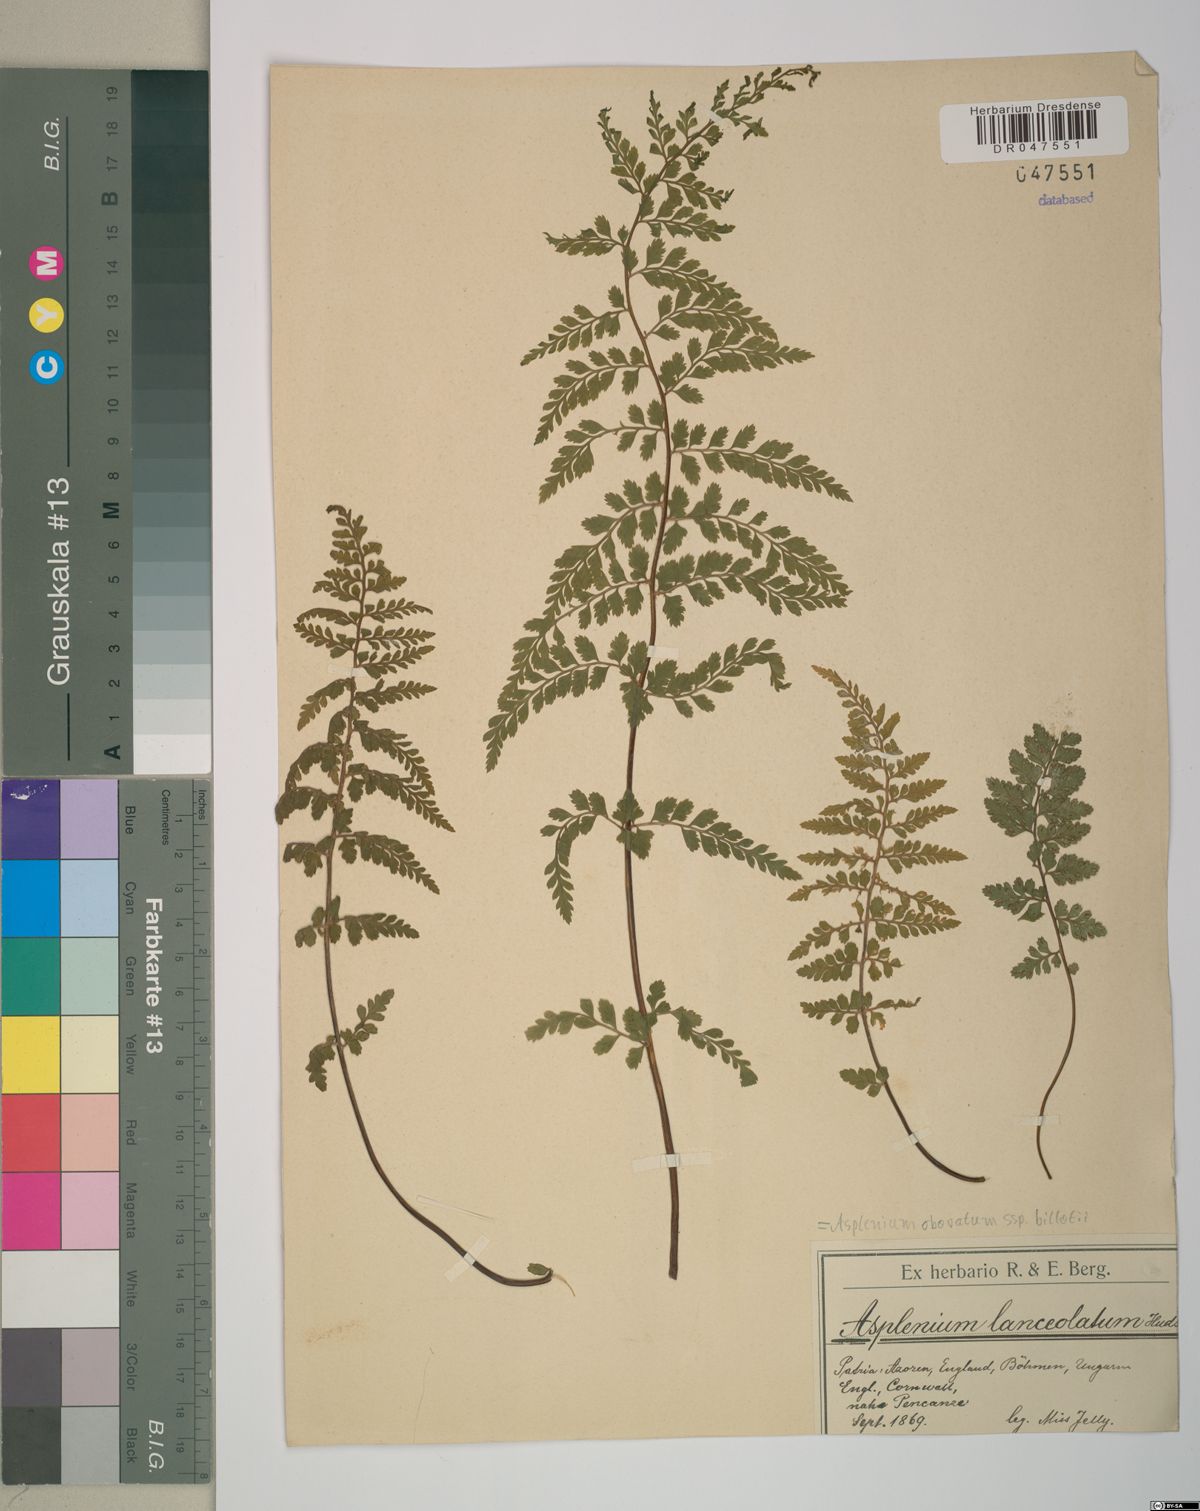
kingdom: Plantae
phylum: Tracheophyta
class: Polypodiopsida
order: Polypodiales
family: Aspleniaceae
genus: Asplenium
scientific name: Asplenium obovatum
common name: Lanceolate spleenwort
